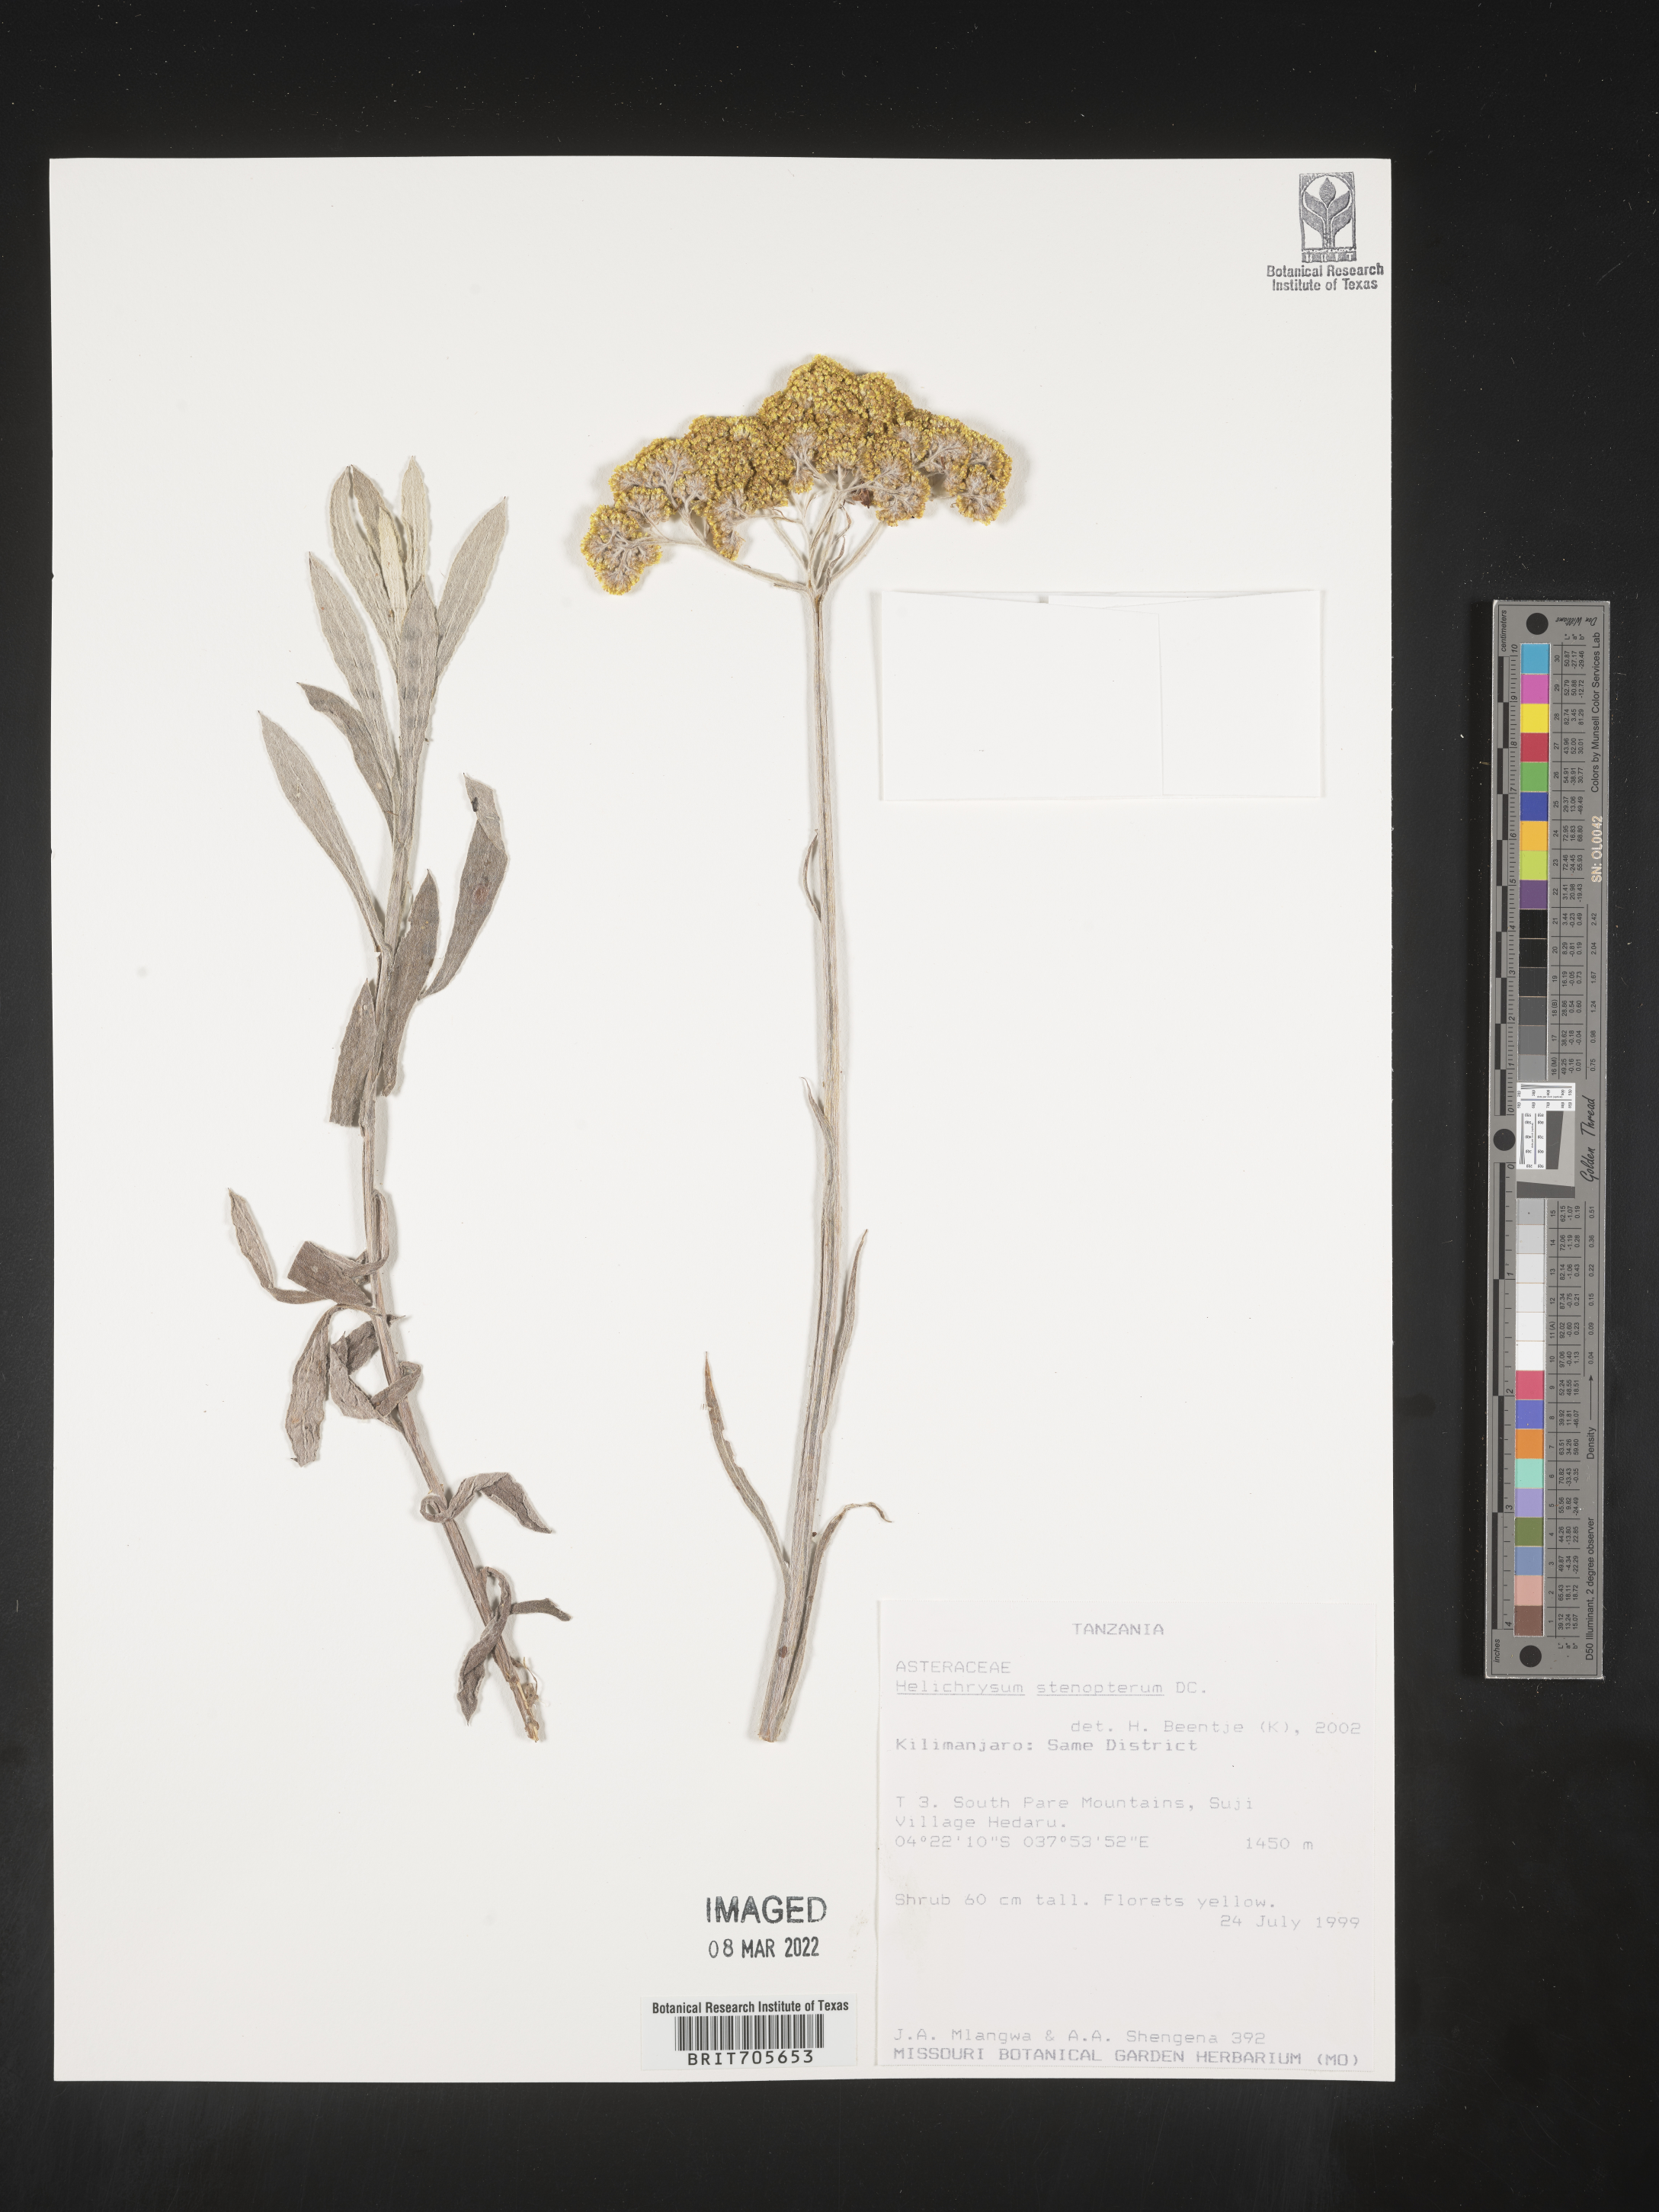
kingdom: Plantae
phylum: Tracheophyta
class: Magnoliopsida
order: Asterales
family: Asteraceae
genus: Helichrysum
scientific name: Helichrysum
